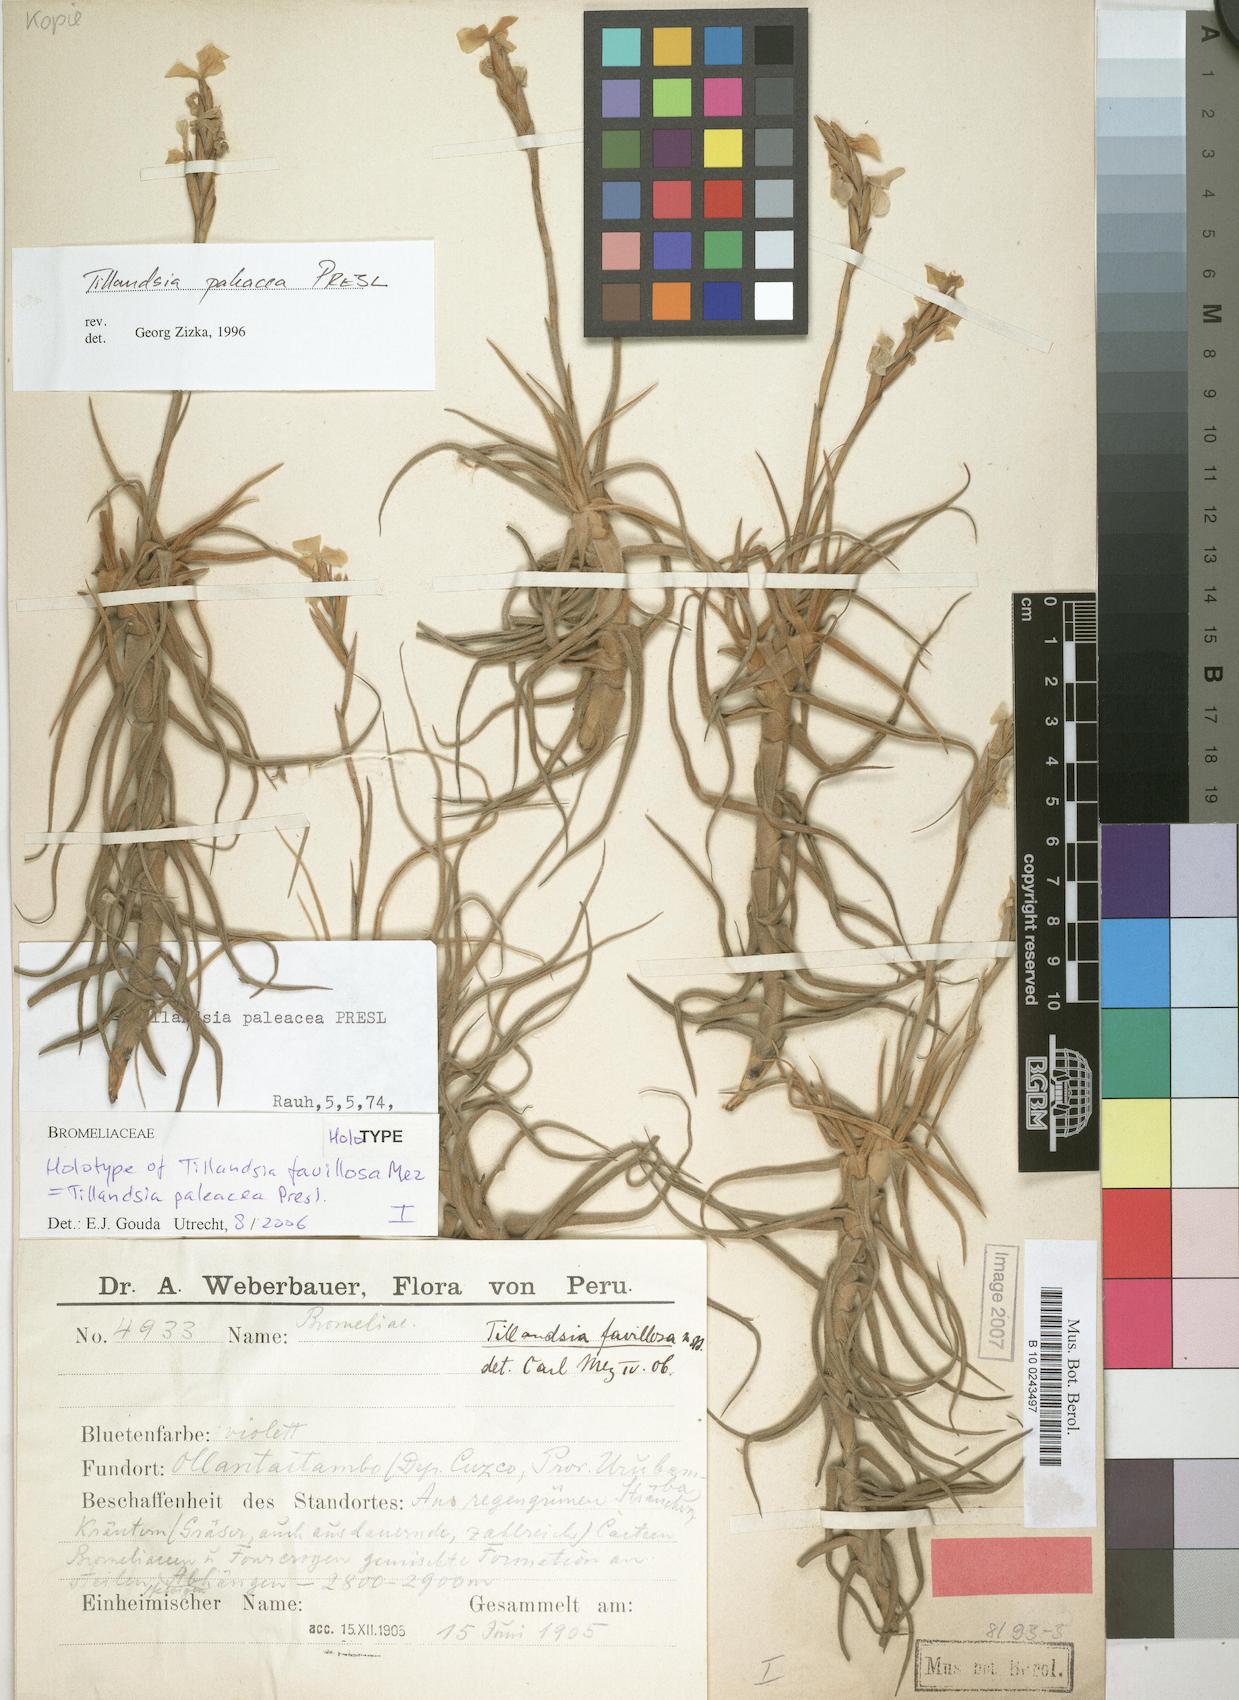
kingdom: Plantae
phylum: Tracheophyta
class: Liliopsida
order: Poales
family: Bromeliaceae
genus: Tillandsia
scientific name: Tillandsia paleacea
